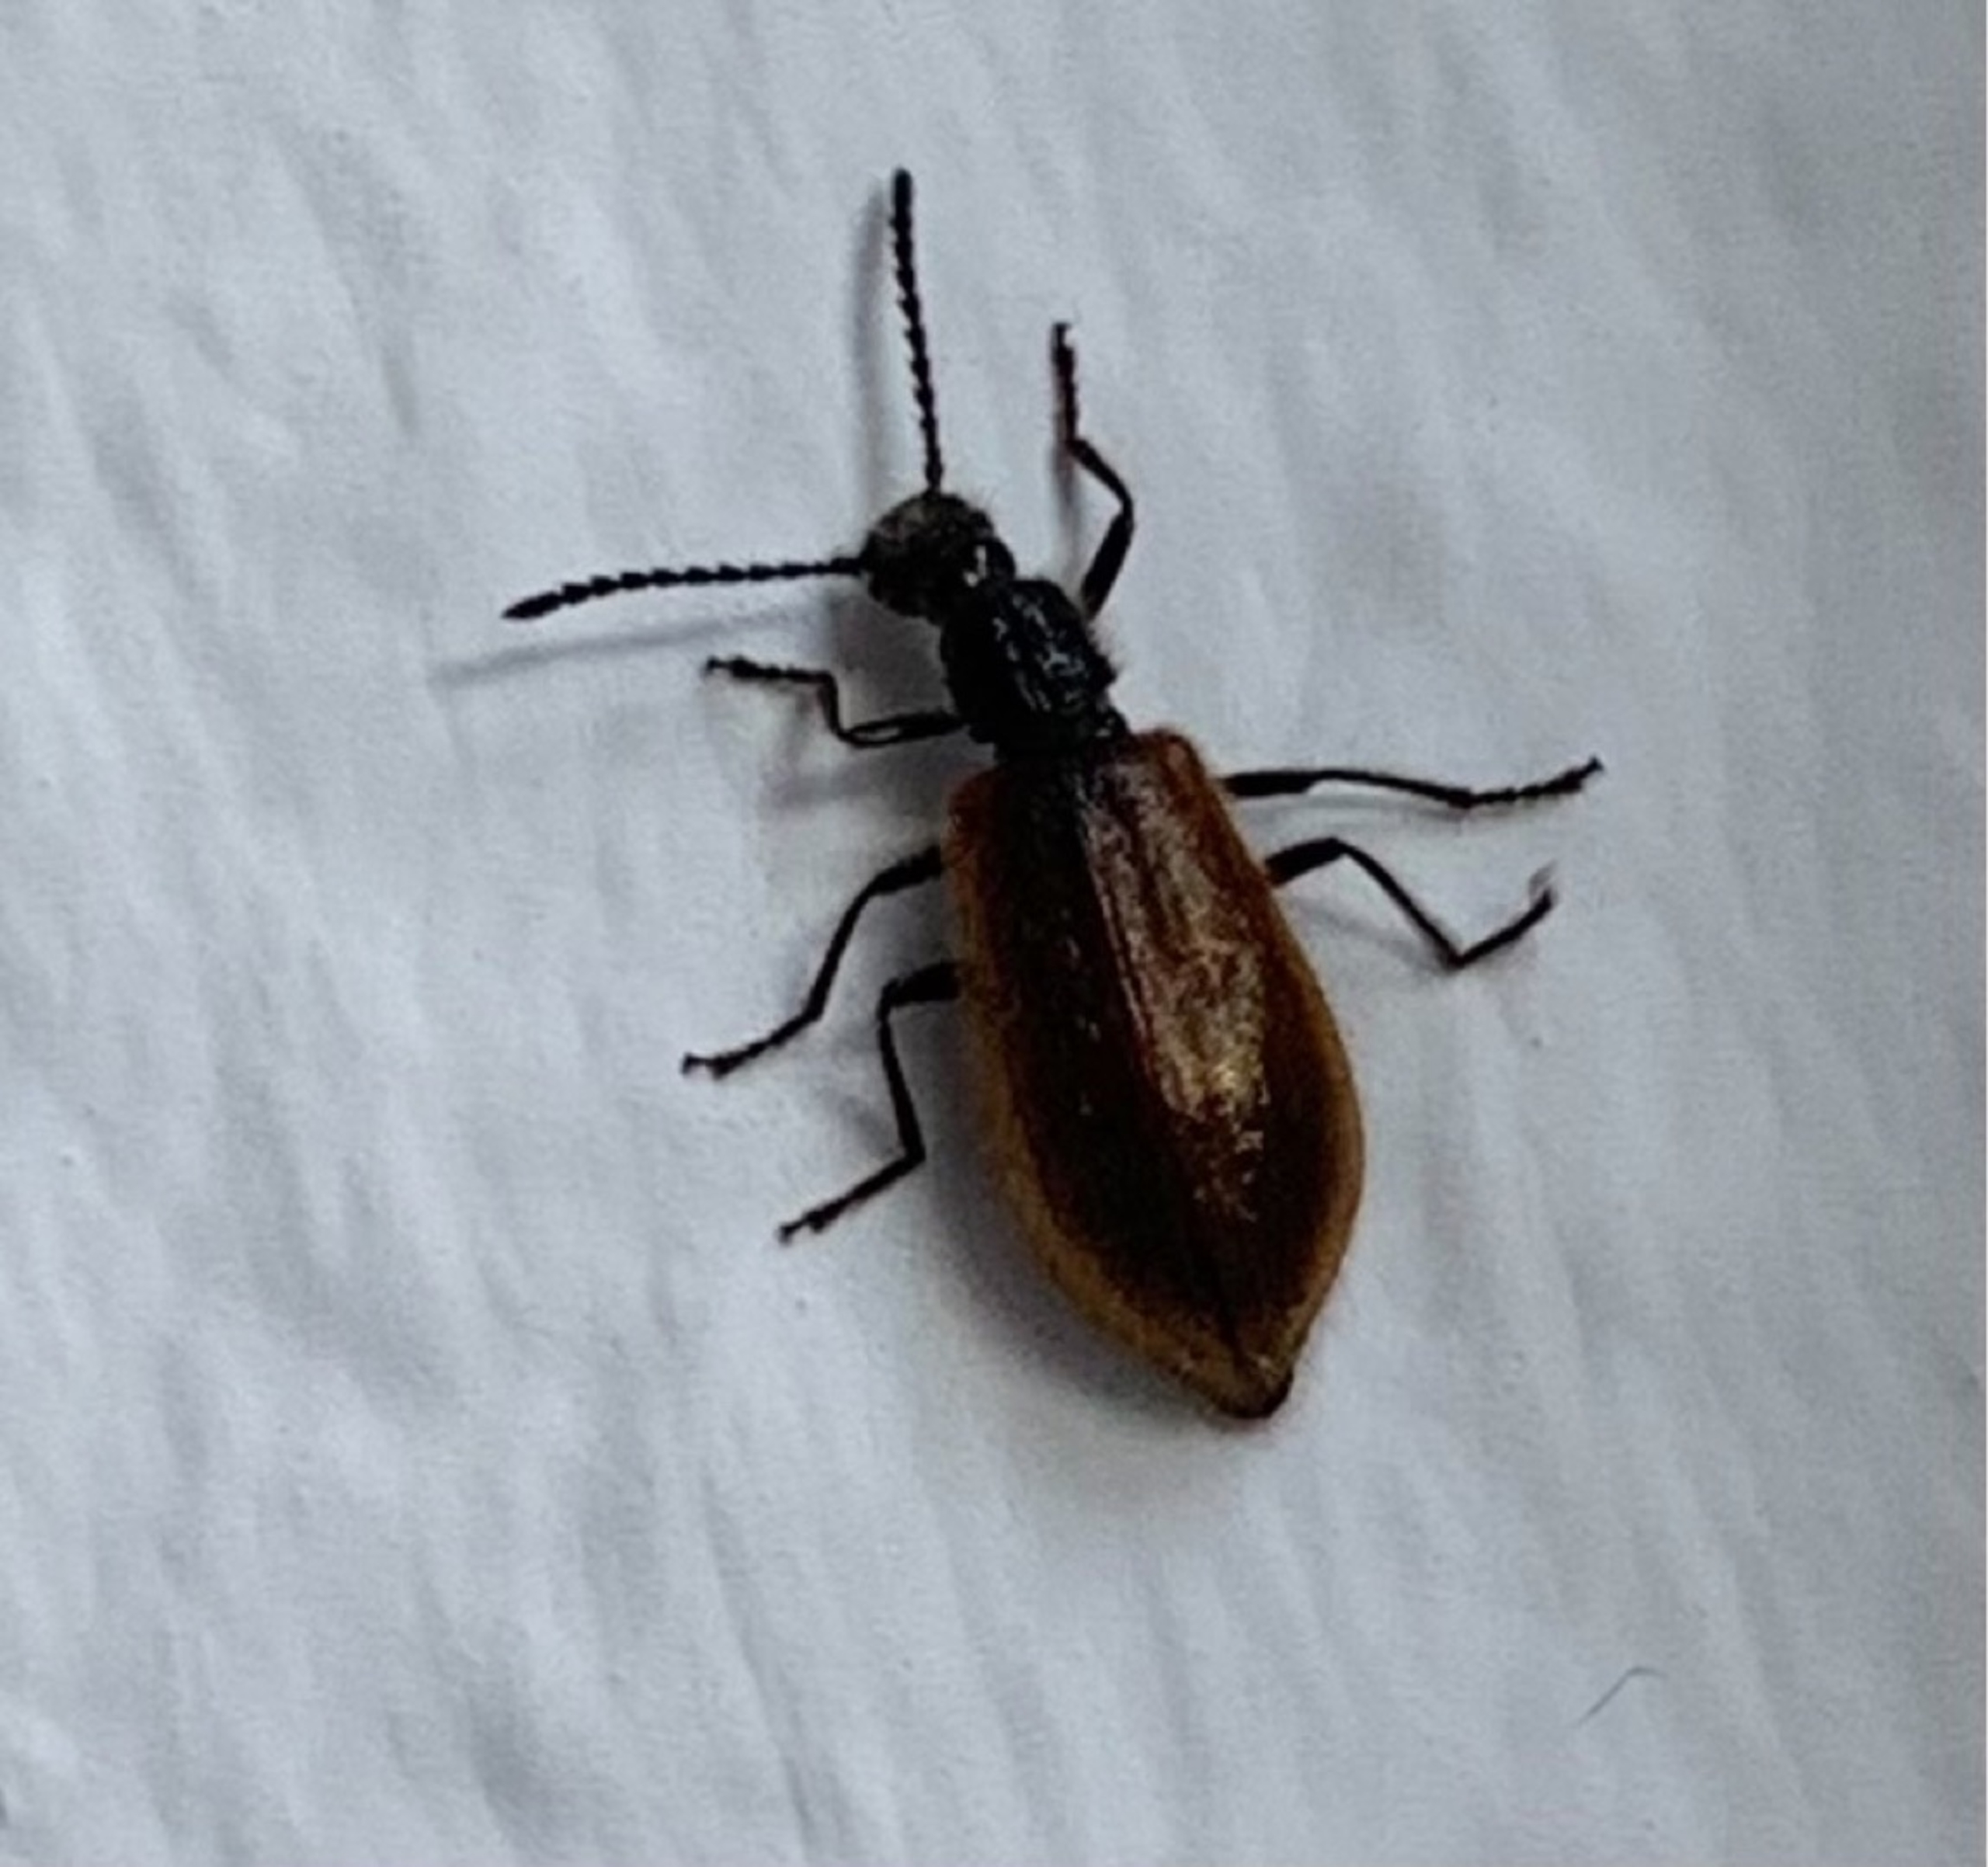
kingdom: Animalia
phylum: Arthropoda
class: Insecta
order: Coleoptera
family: Tenebrionidae
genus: Lagria
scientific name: Lagria hirta
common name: Håret skyggebille
